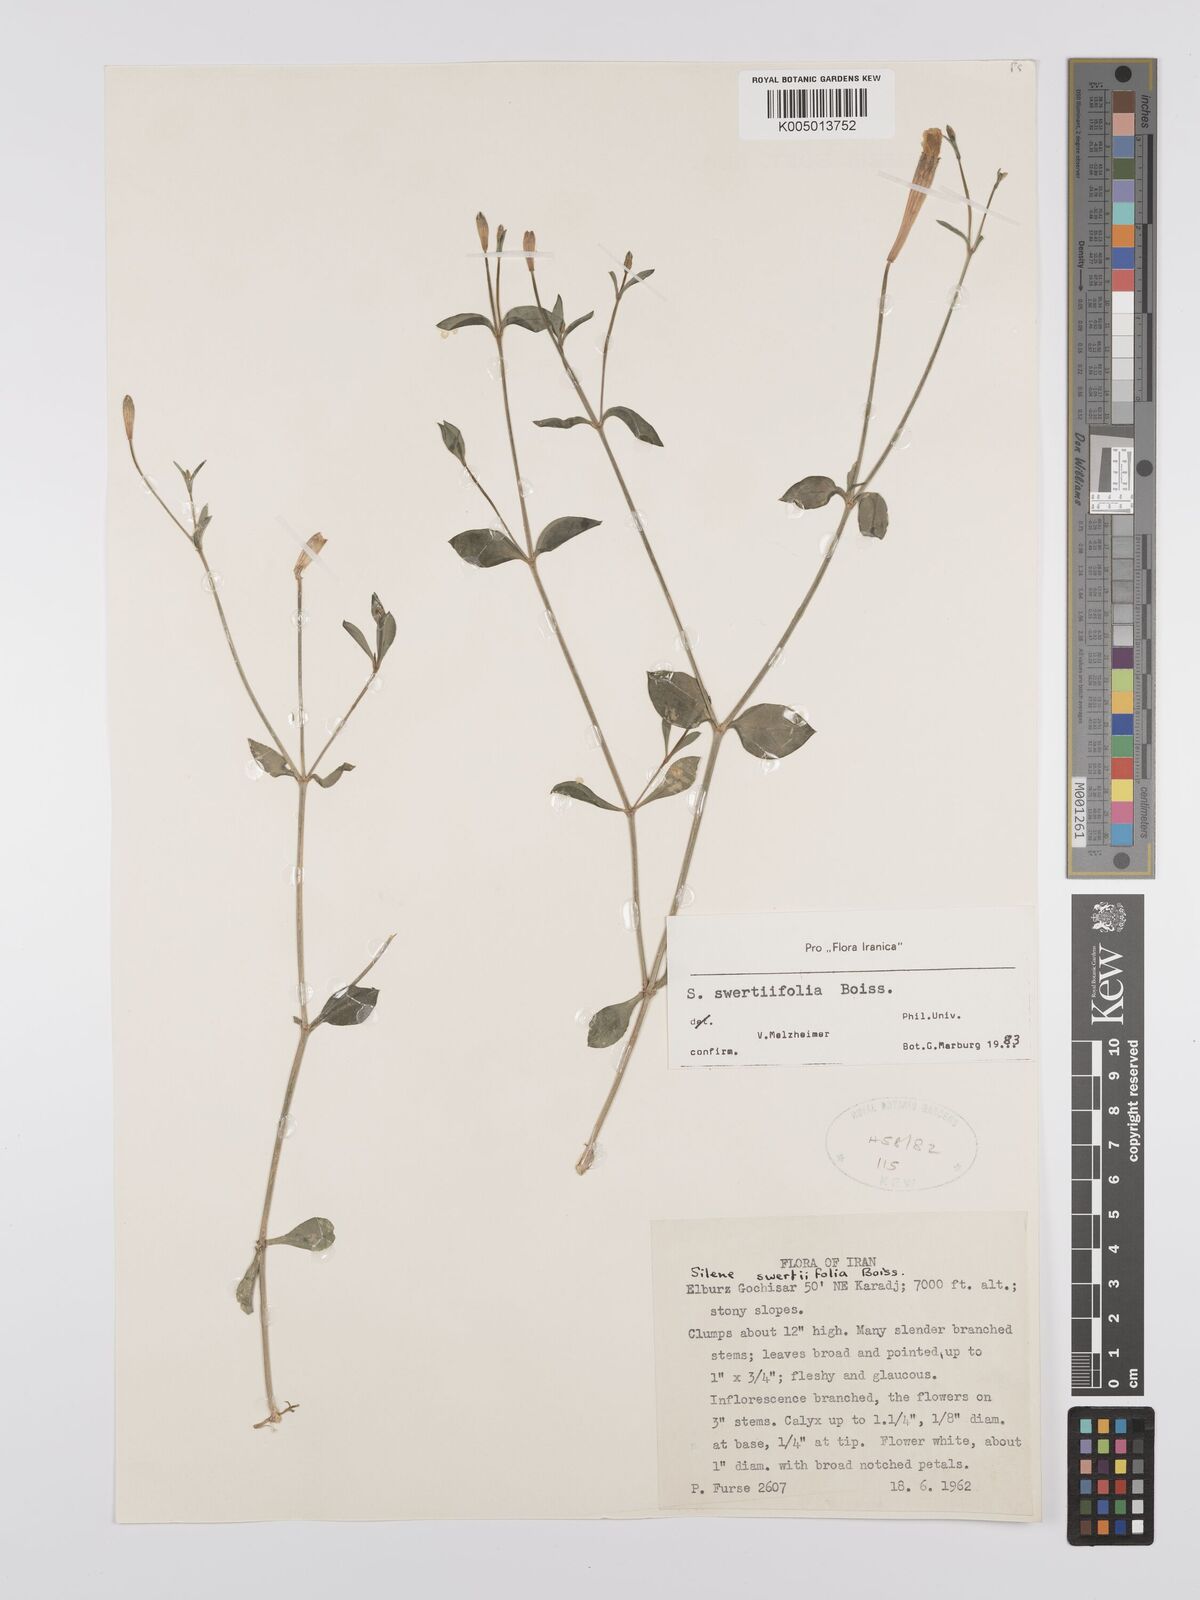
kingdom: Plantae
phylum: Tracheophyta
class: Magnoliopsida
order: Caryophyllales
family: Caryophyllaceae
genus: Silene
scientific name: Silene swertiifolia
